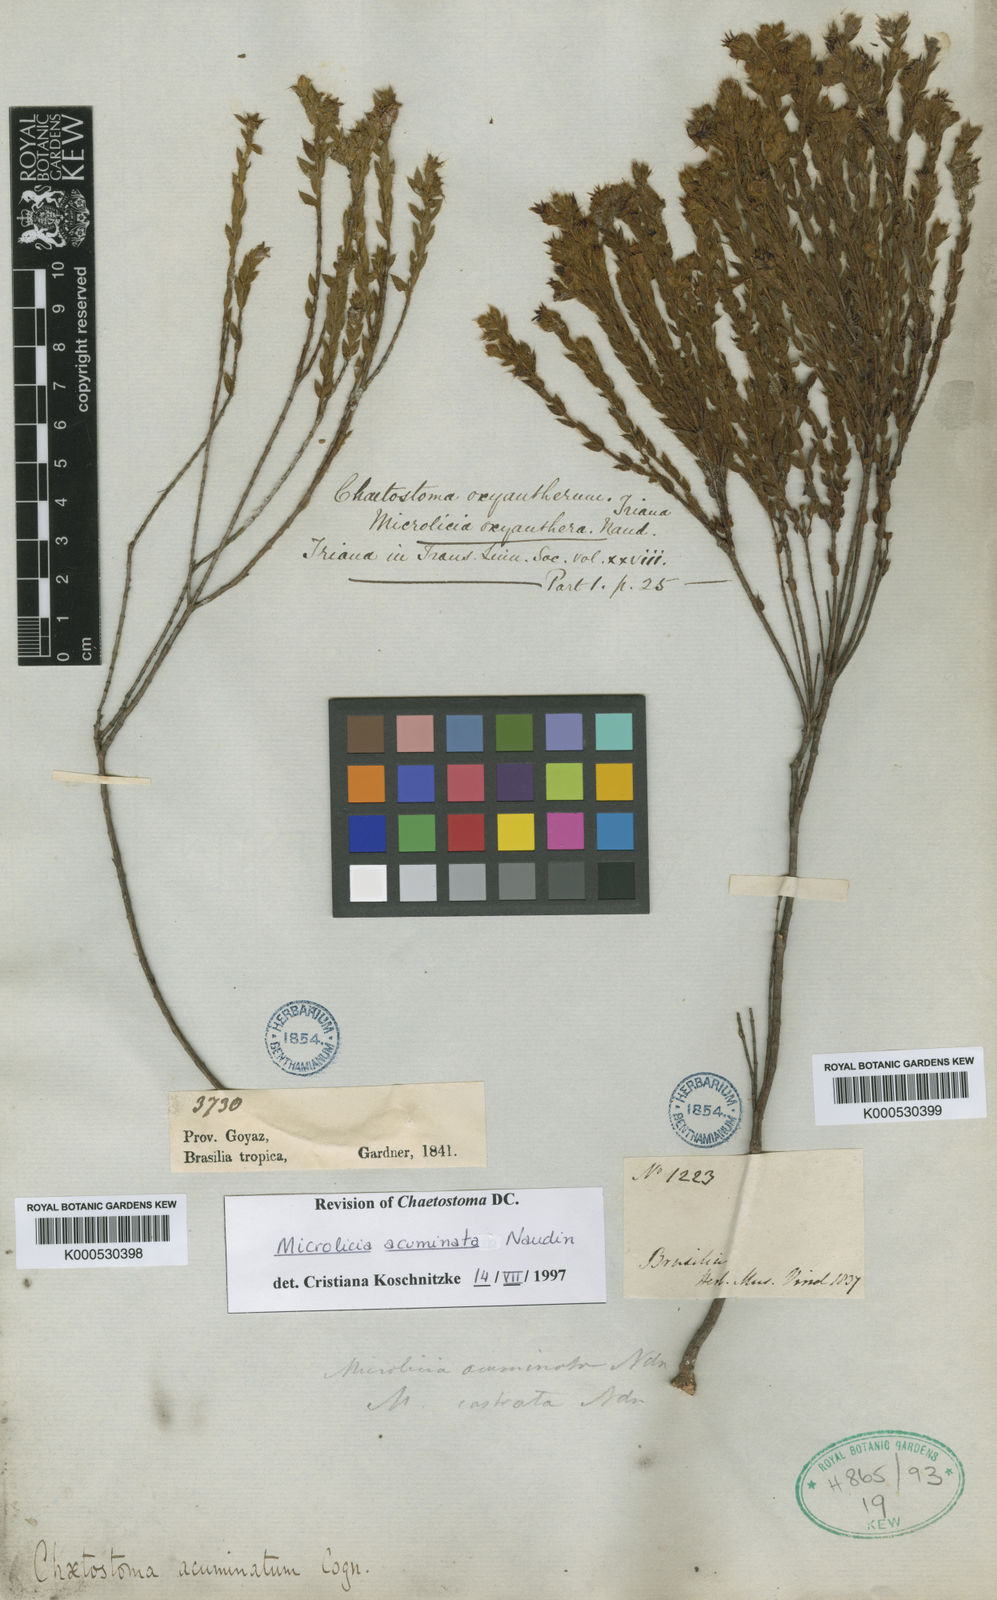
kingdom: Plantae
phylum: Tracheophyta
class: Magnoliopsida
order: Myrtales
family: Melastomataceae
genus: Microlicia
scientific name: Microlicia
